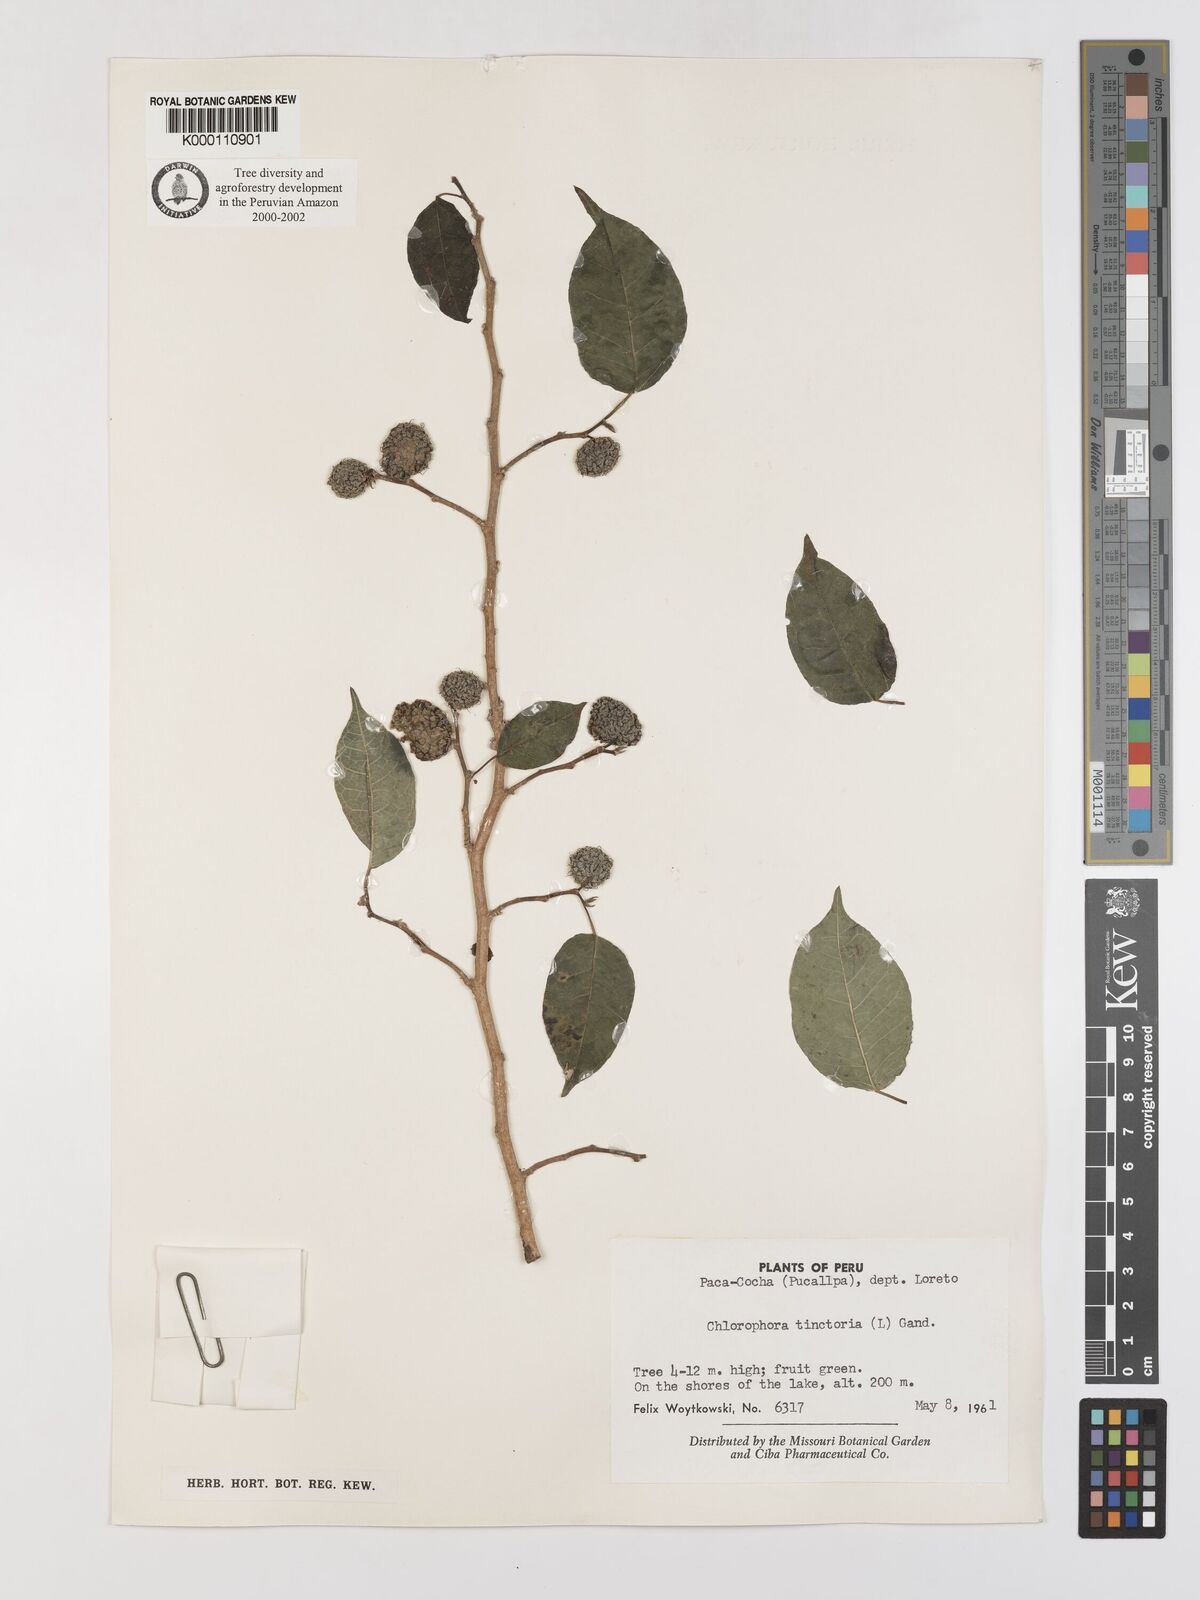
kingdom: Plantae
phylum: Tracheophyta
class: Magnoliopsida
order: Rosales
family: Moraceae
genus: Maclura
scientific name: Maclura tinctoria
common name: Old fustic
